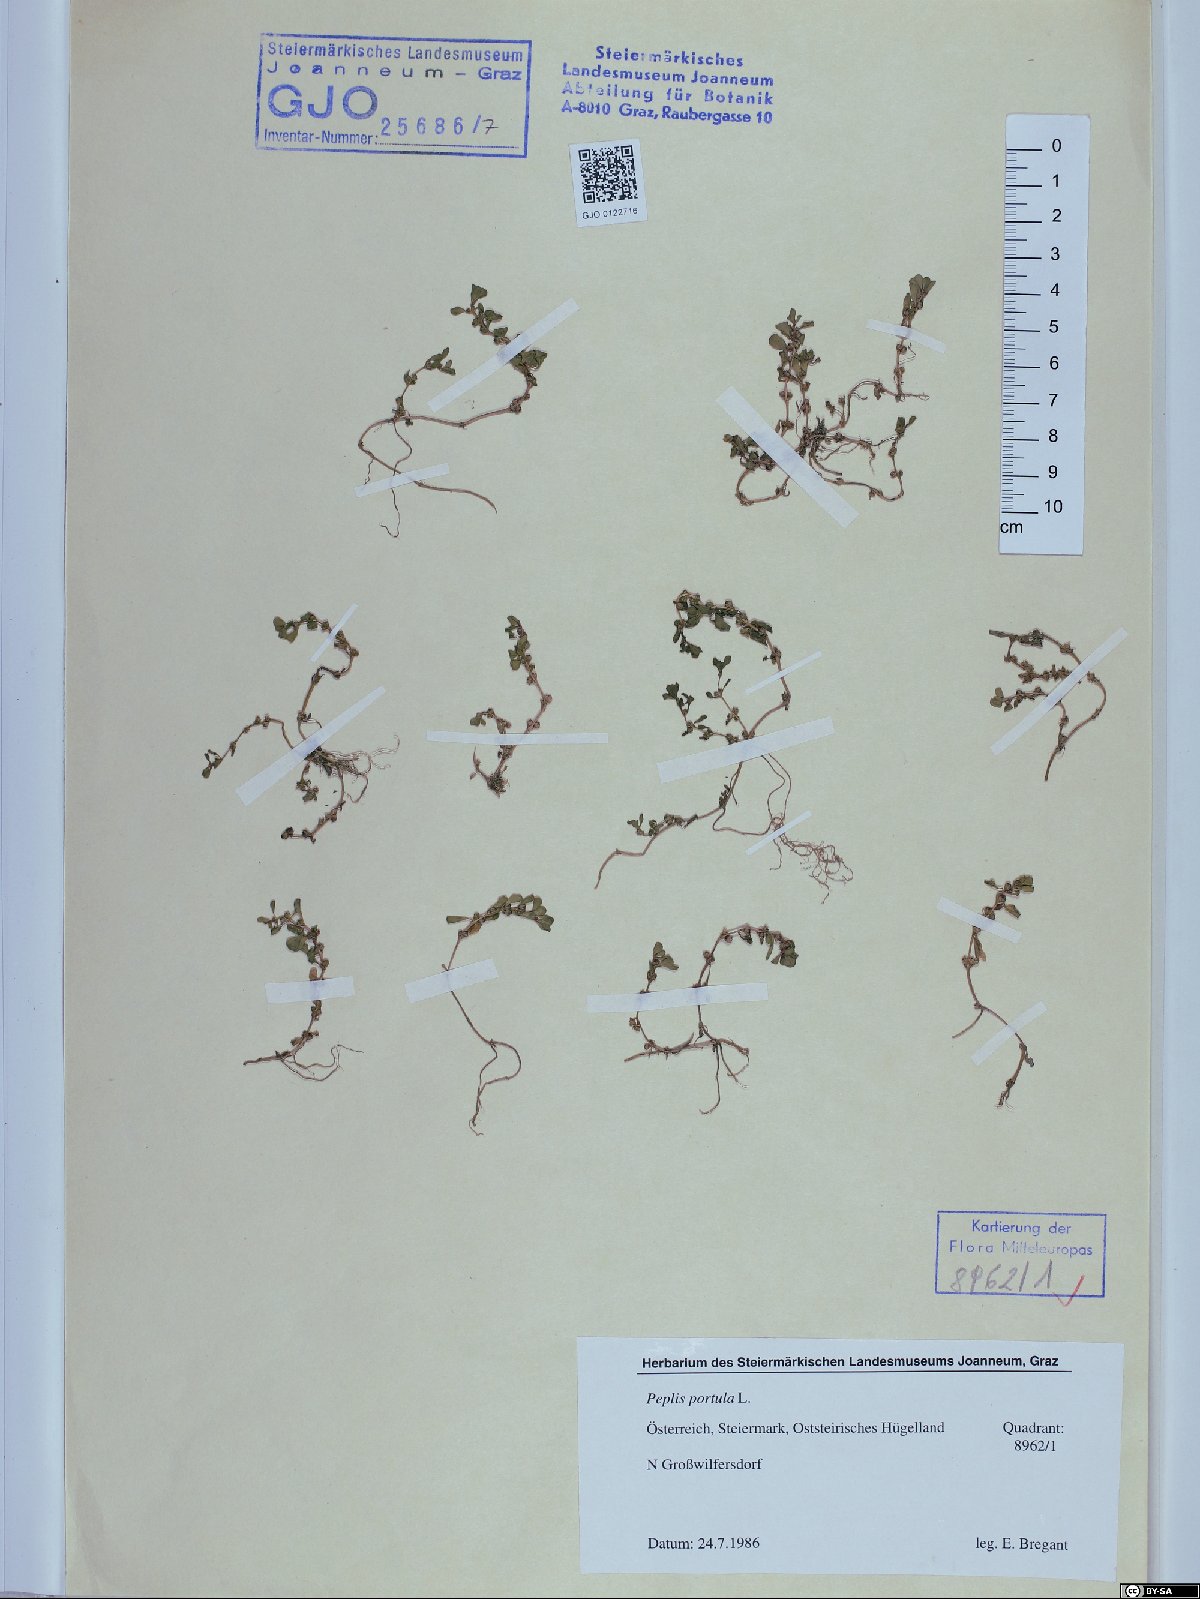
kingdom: Plantae
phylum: Tracheophyta
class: Magnoliopsida
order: Myrtales
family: Lythraceae
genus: Lythrum
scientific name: Lythrum portula
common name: Water purslane
